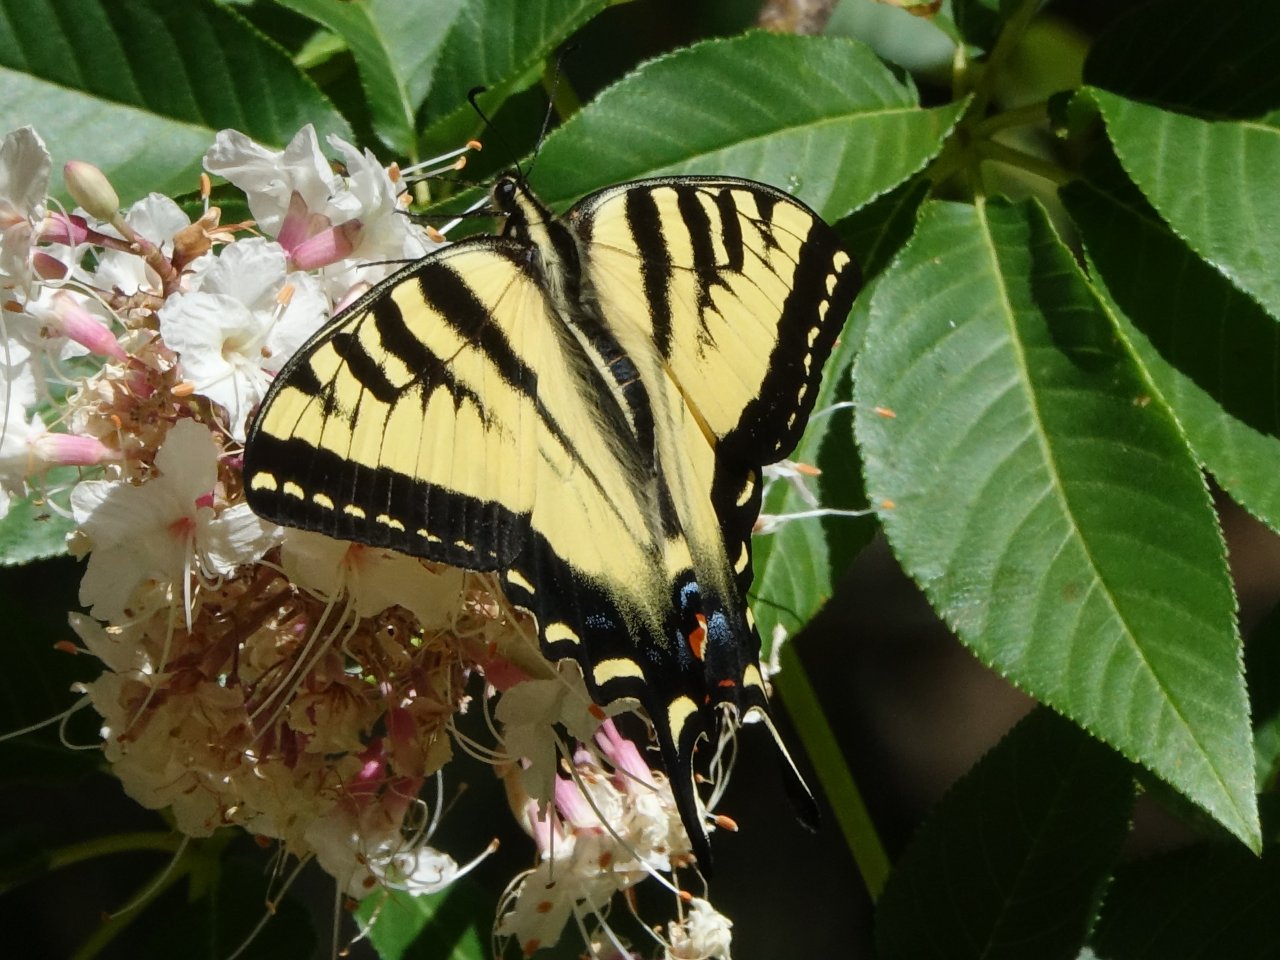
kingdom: Animalia
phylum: Arthropoda
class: Insecta
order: Lepidoptera
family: Papilionidae
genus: Pterourus
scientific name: Pterourus rutulus
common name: Western Tiger Swallowtail
